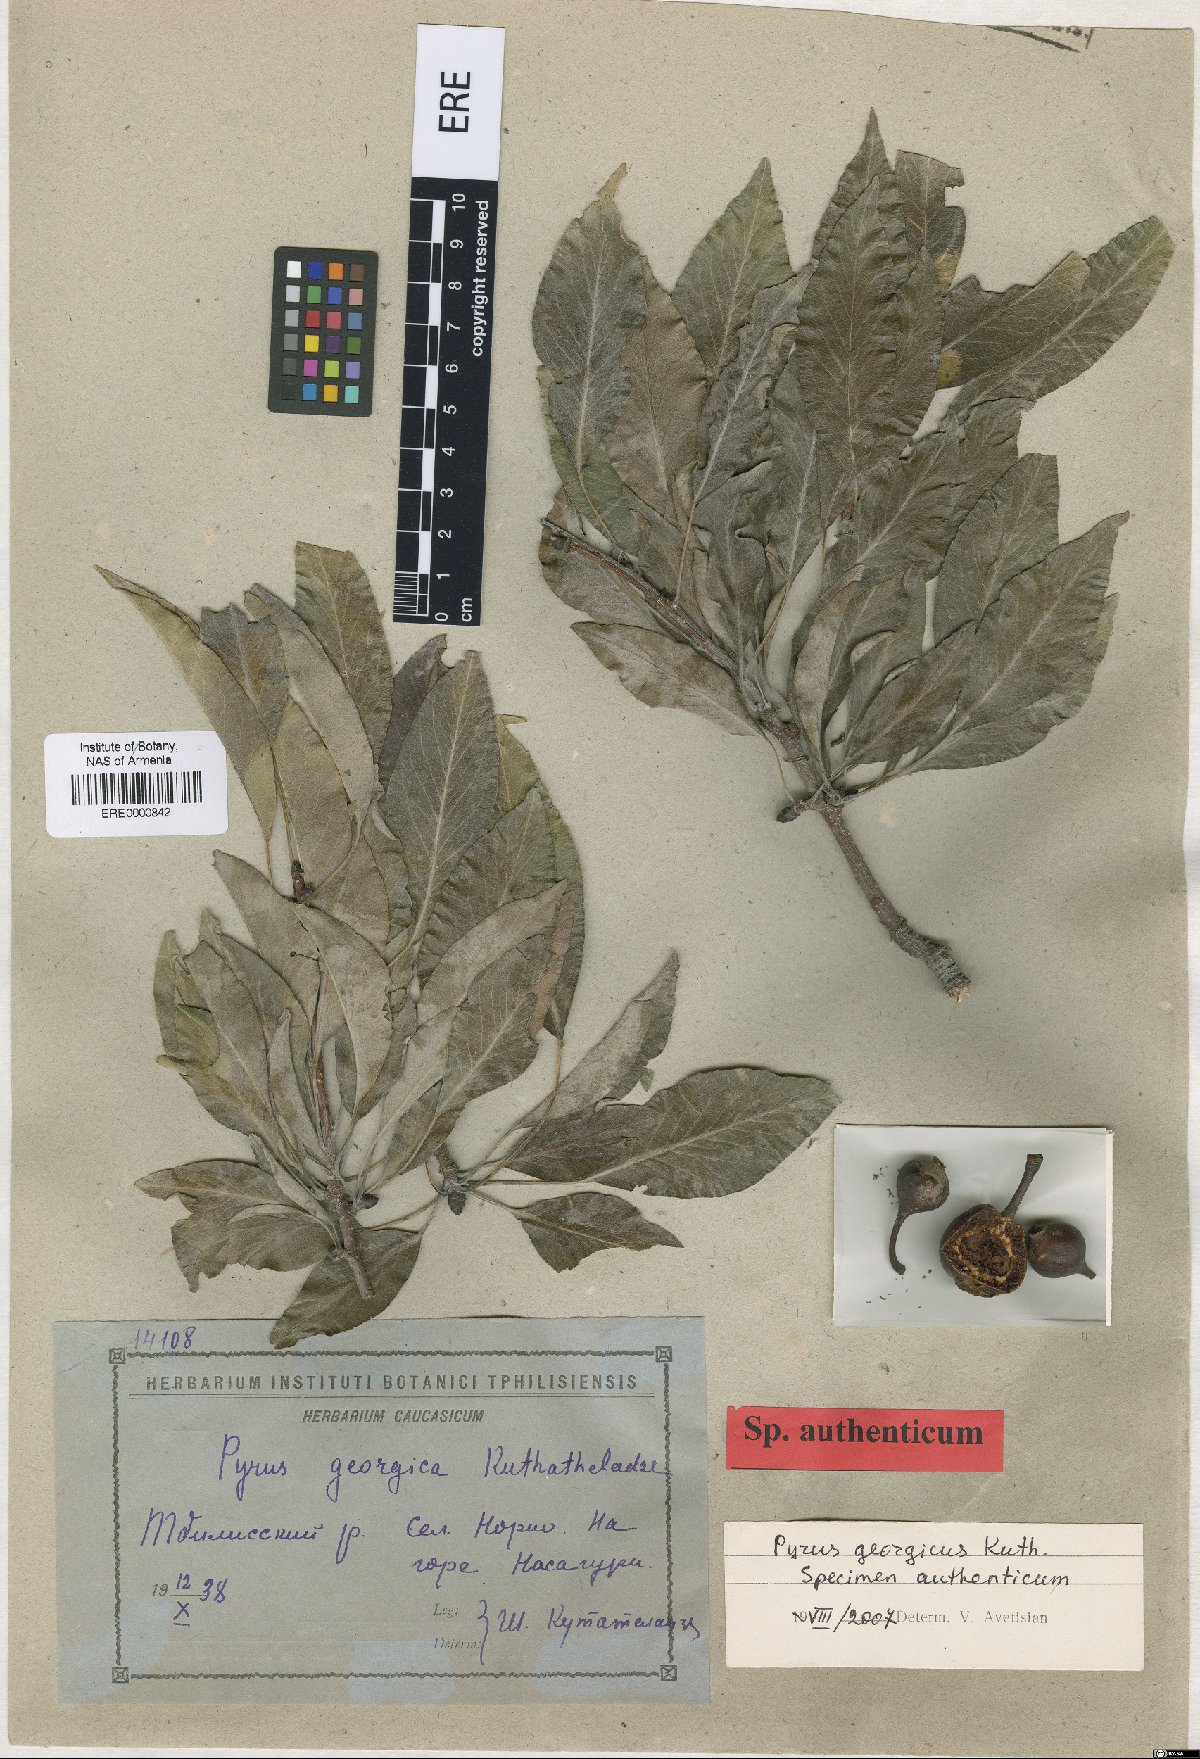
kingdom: Plantae
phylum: Tracheophyta
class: Magnoliopsida
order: Rosales
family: Rosaceae
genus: Pyrus
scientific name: Pyrus georgica
